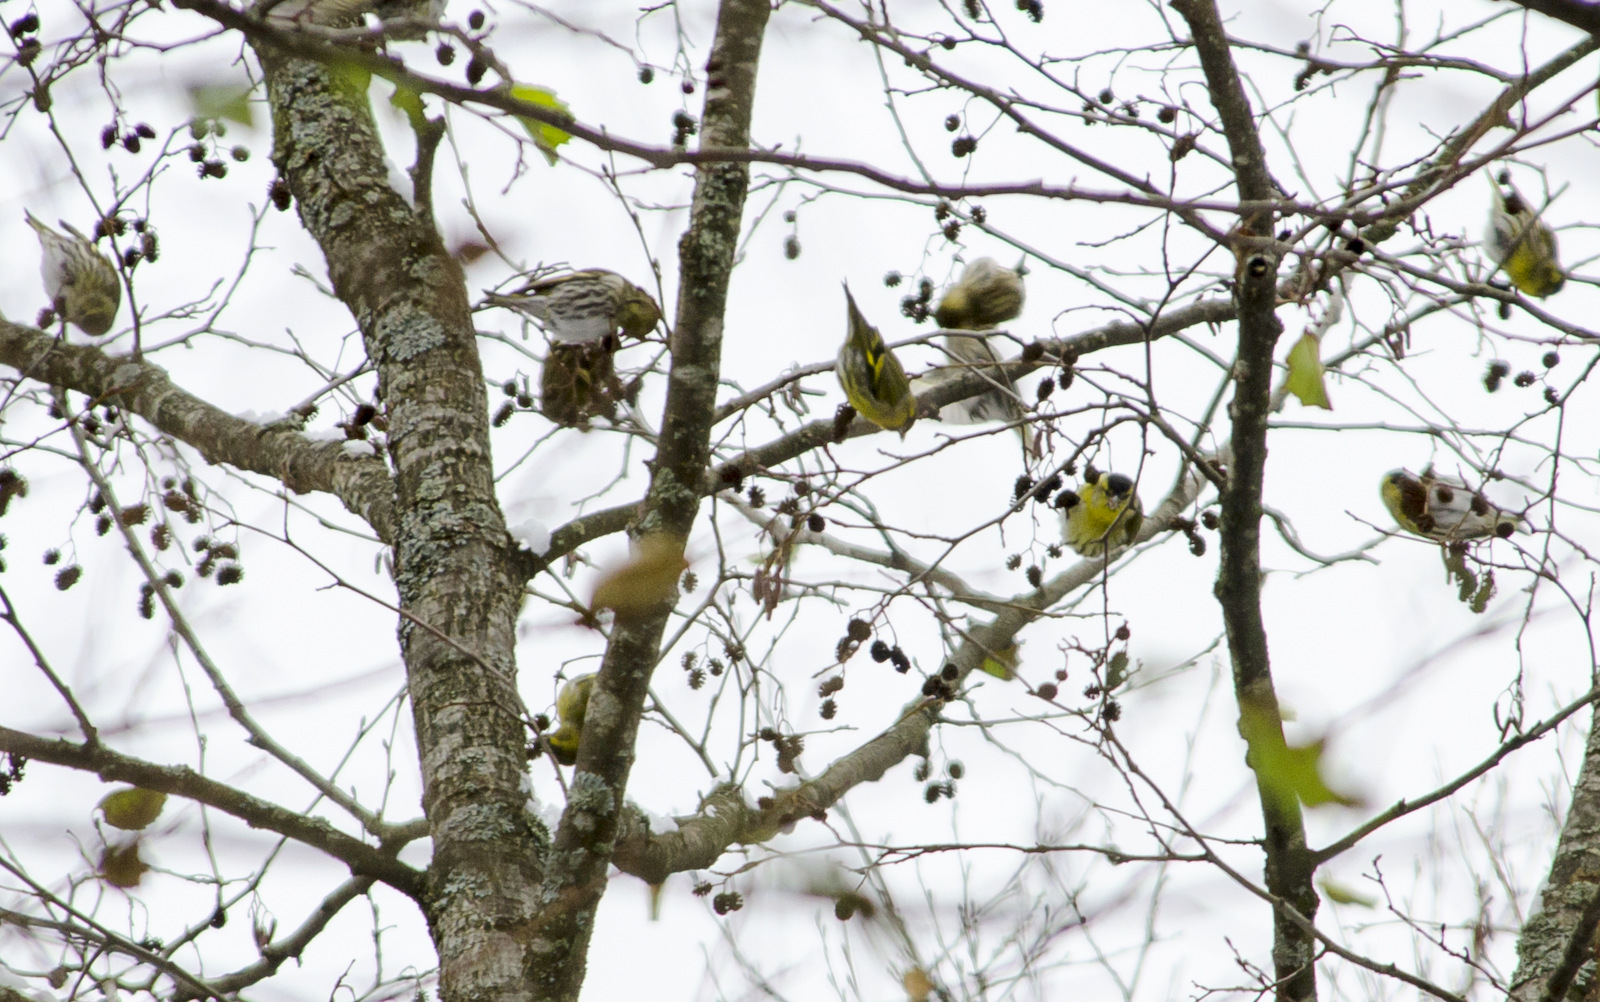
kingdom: Animalia
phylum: Chordata
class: Aves
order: Passeriformes
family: Fringillidae
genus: Spinus
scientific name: Spinus spinus
